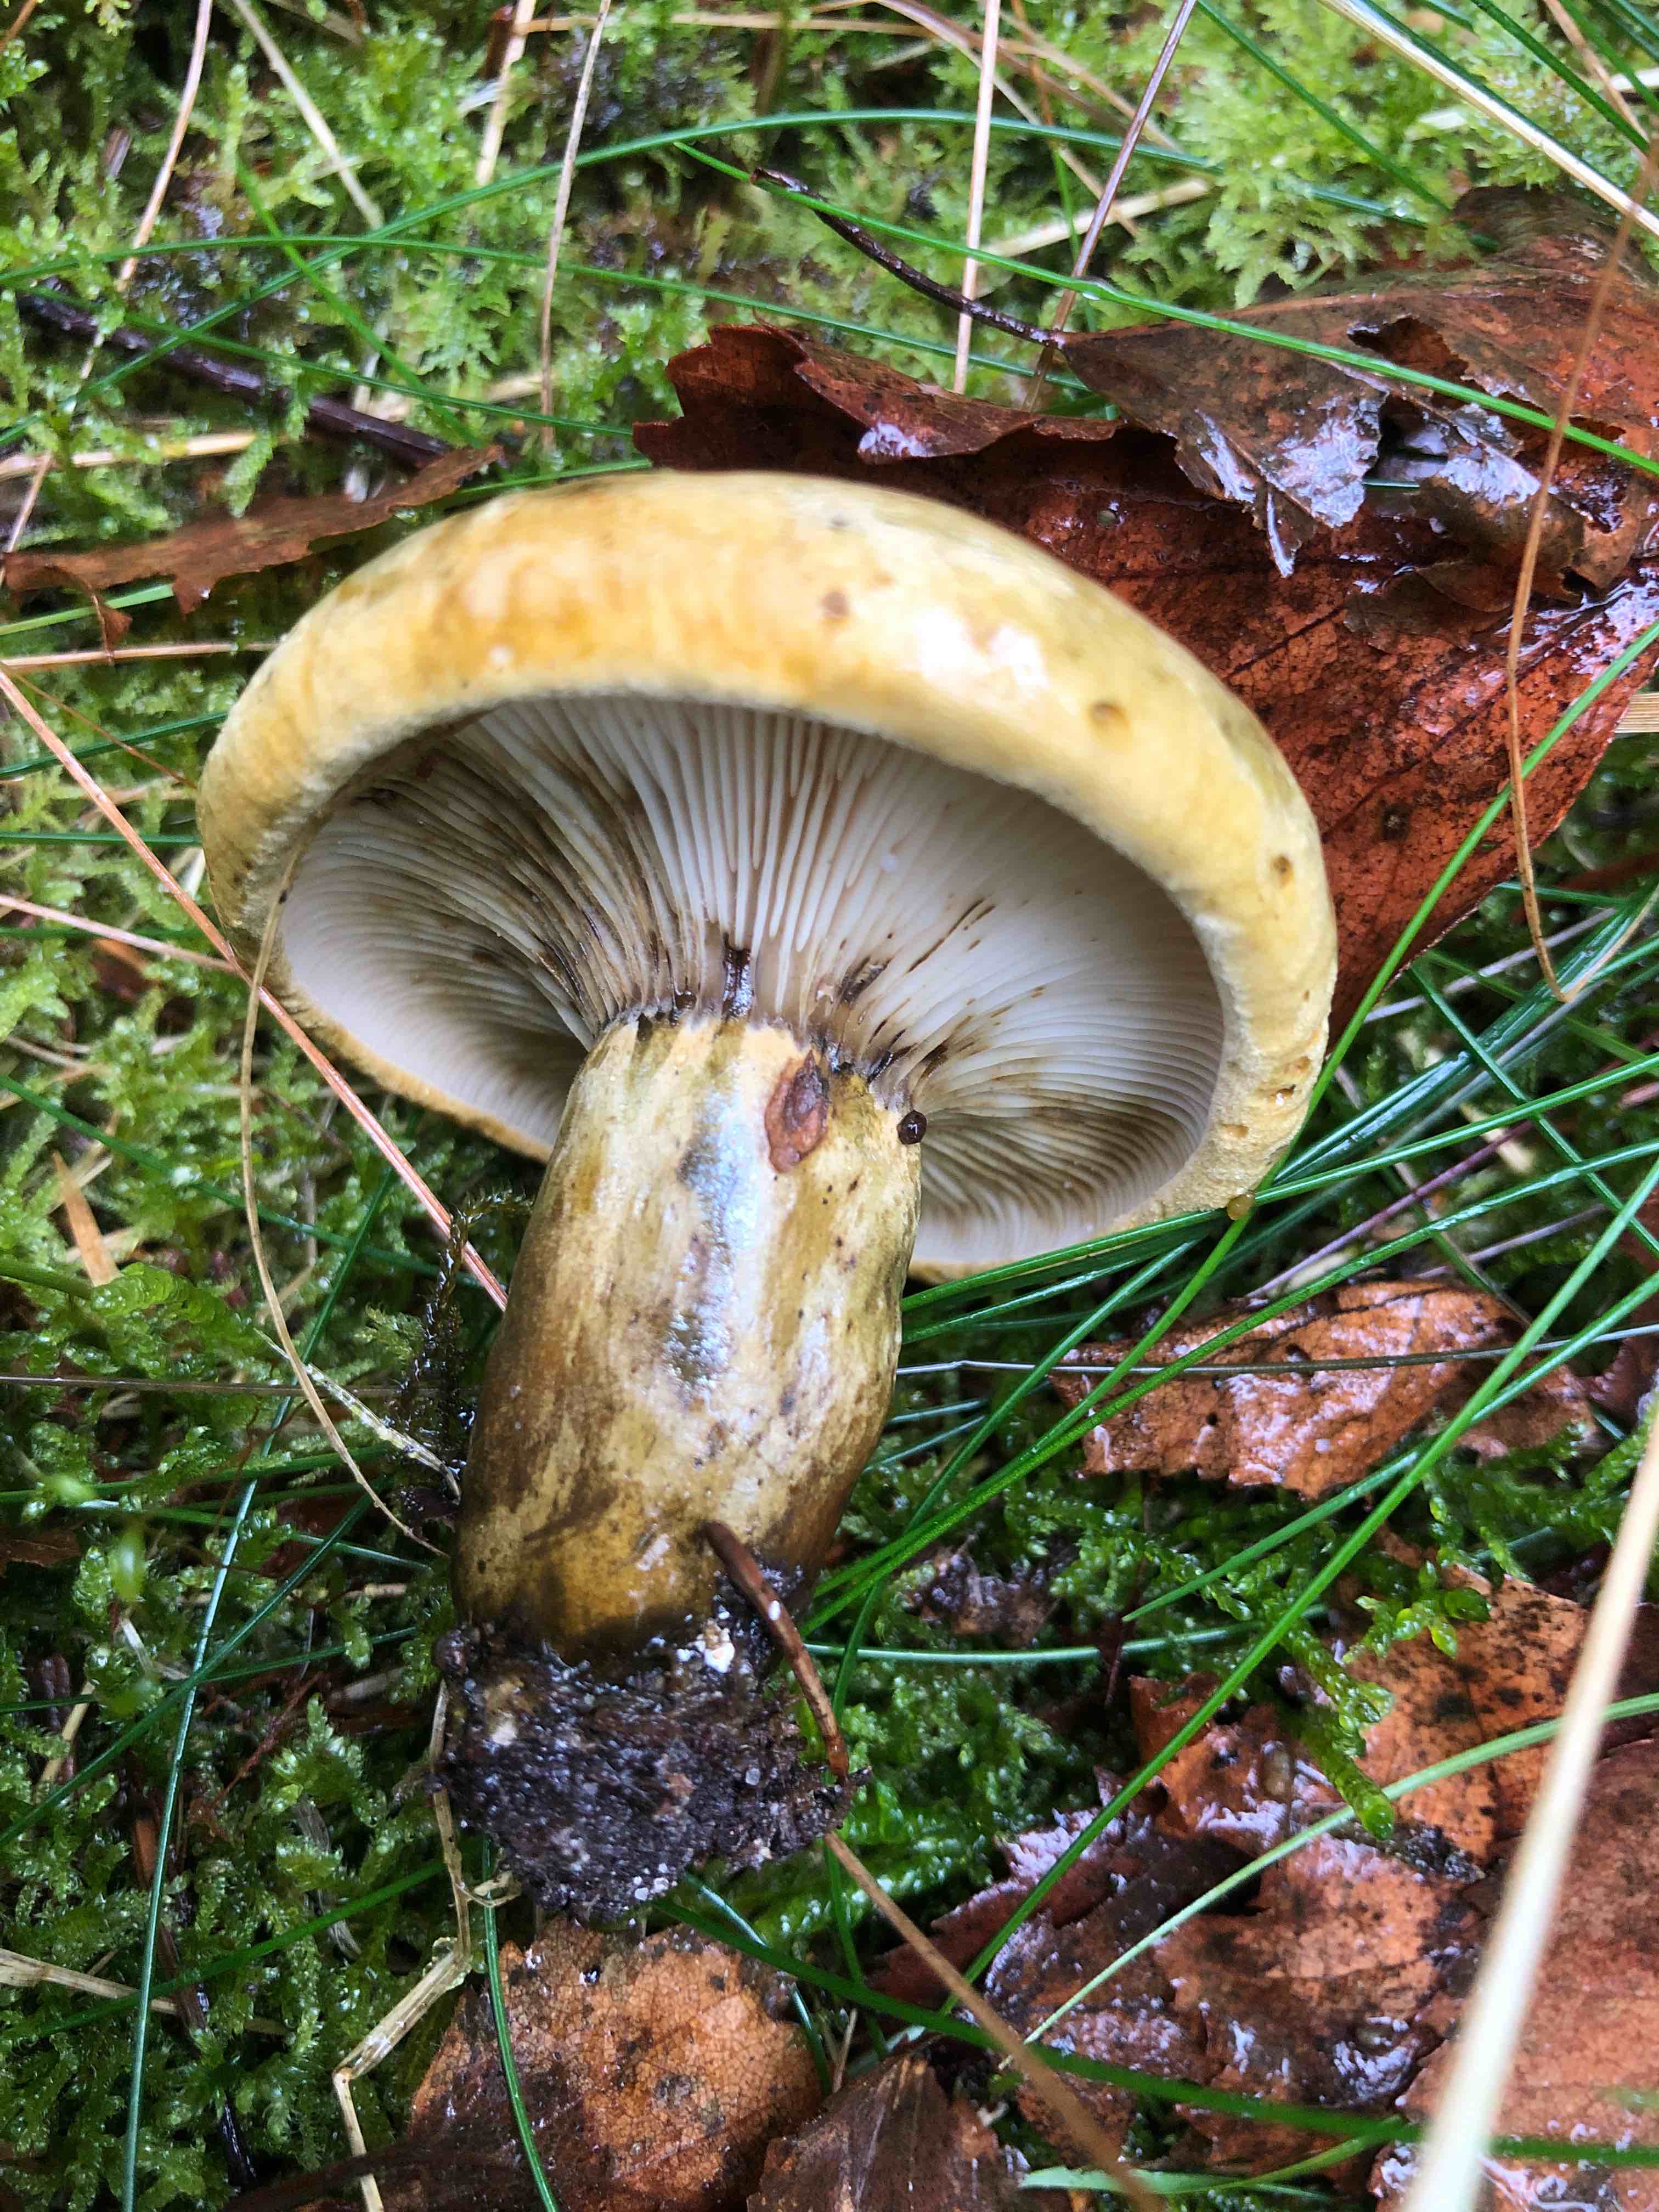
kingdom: Fungi
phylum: Basidiomycota
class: Agaricomycetes
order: Russulales
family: Russulaceae
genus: Lactarius
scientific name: Lactarius necator
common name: manddraber-mælkehat
